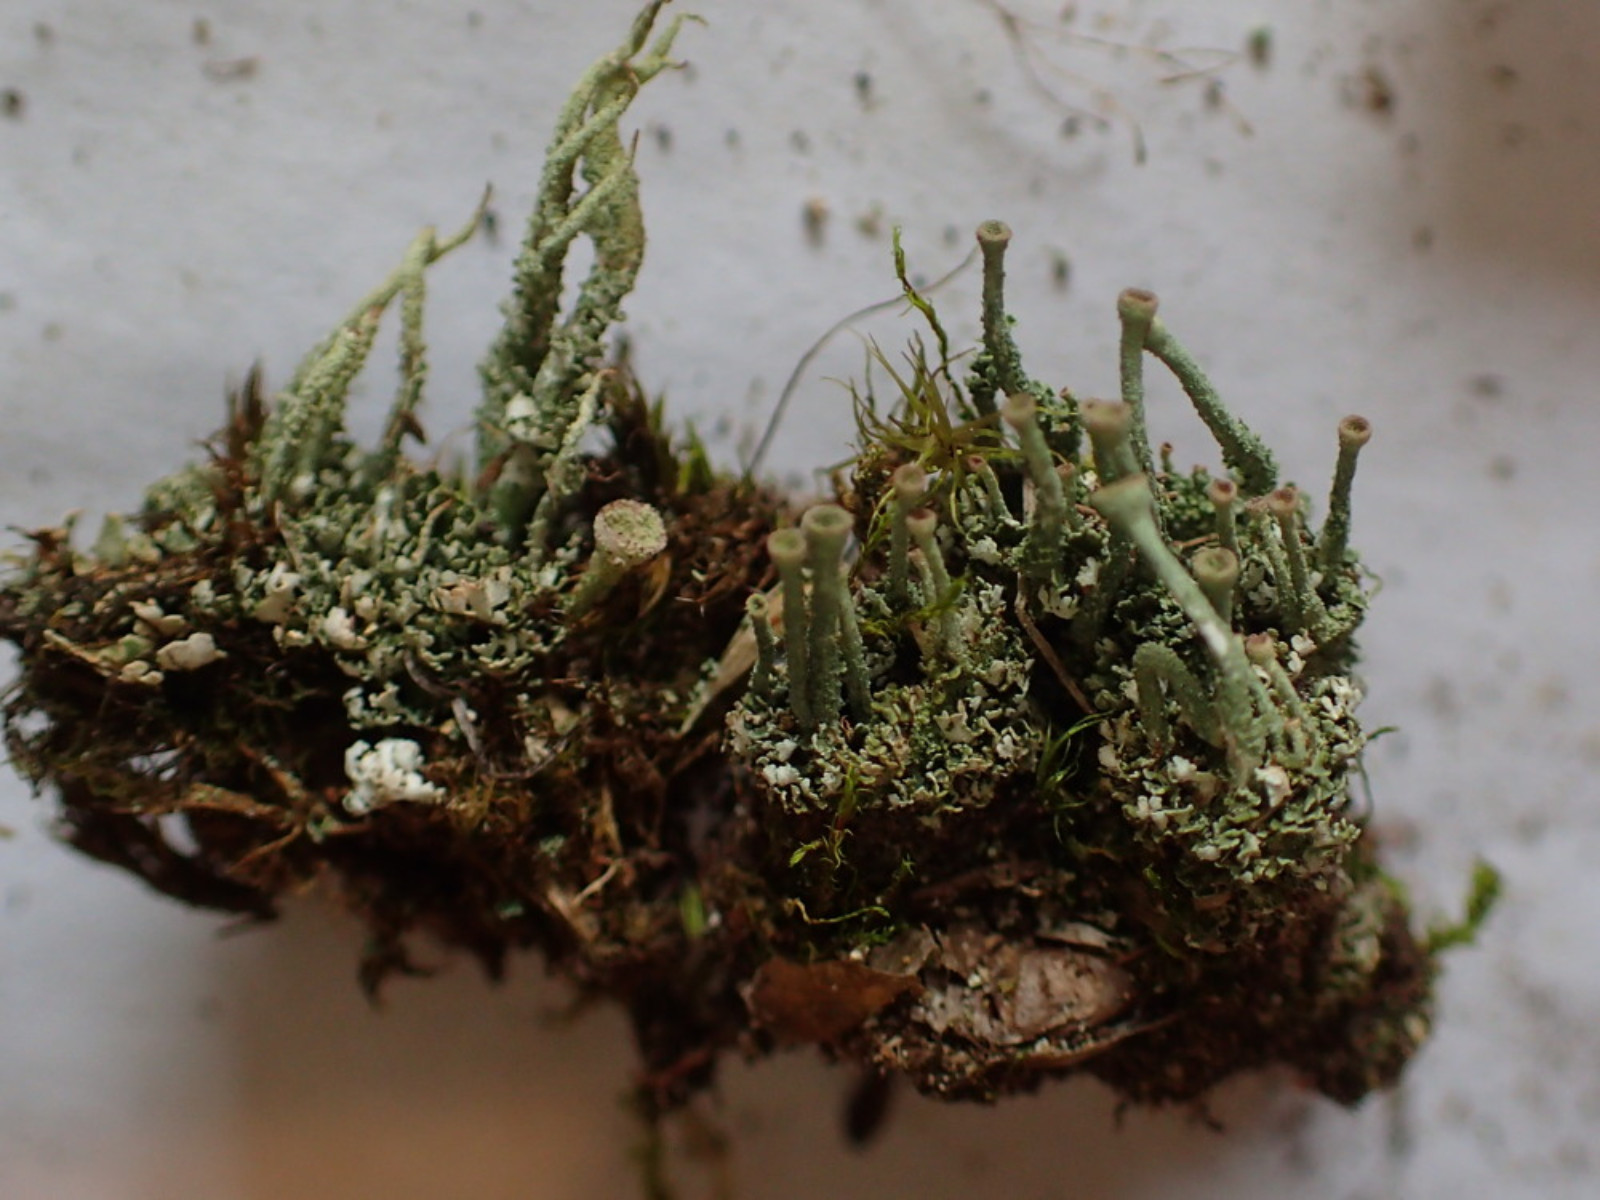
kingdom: Fungi
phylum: Ascomycota
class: Lecanoromycetes
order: Lecanorales
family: Cladoniaceae
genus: Cladonia
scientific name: Cladonia
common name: brungrøn bægerlav
